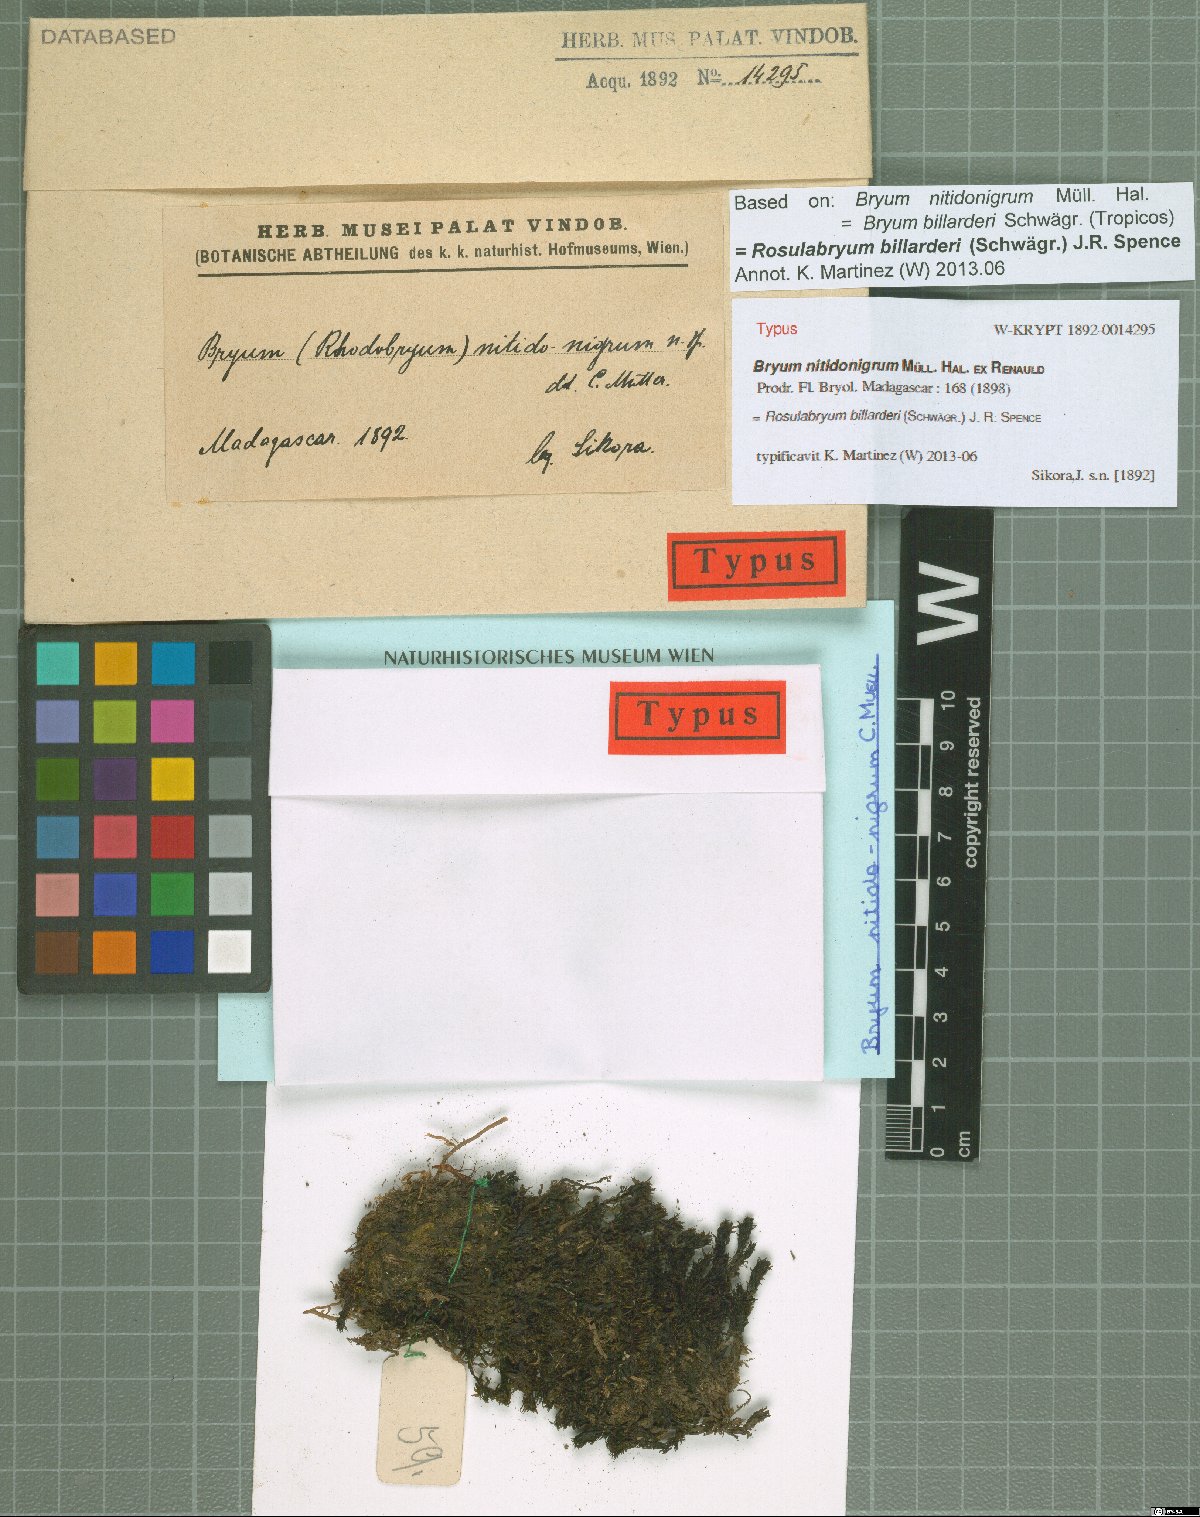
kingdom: Plantae
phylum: Bryophyta
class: Bryopsida
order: Bryales
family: Bryaceae
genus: Rosulabryum
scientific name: Rosulabryum andicola
